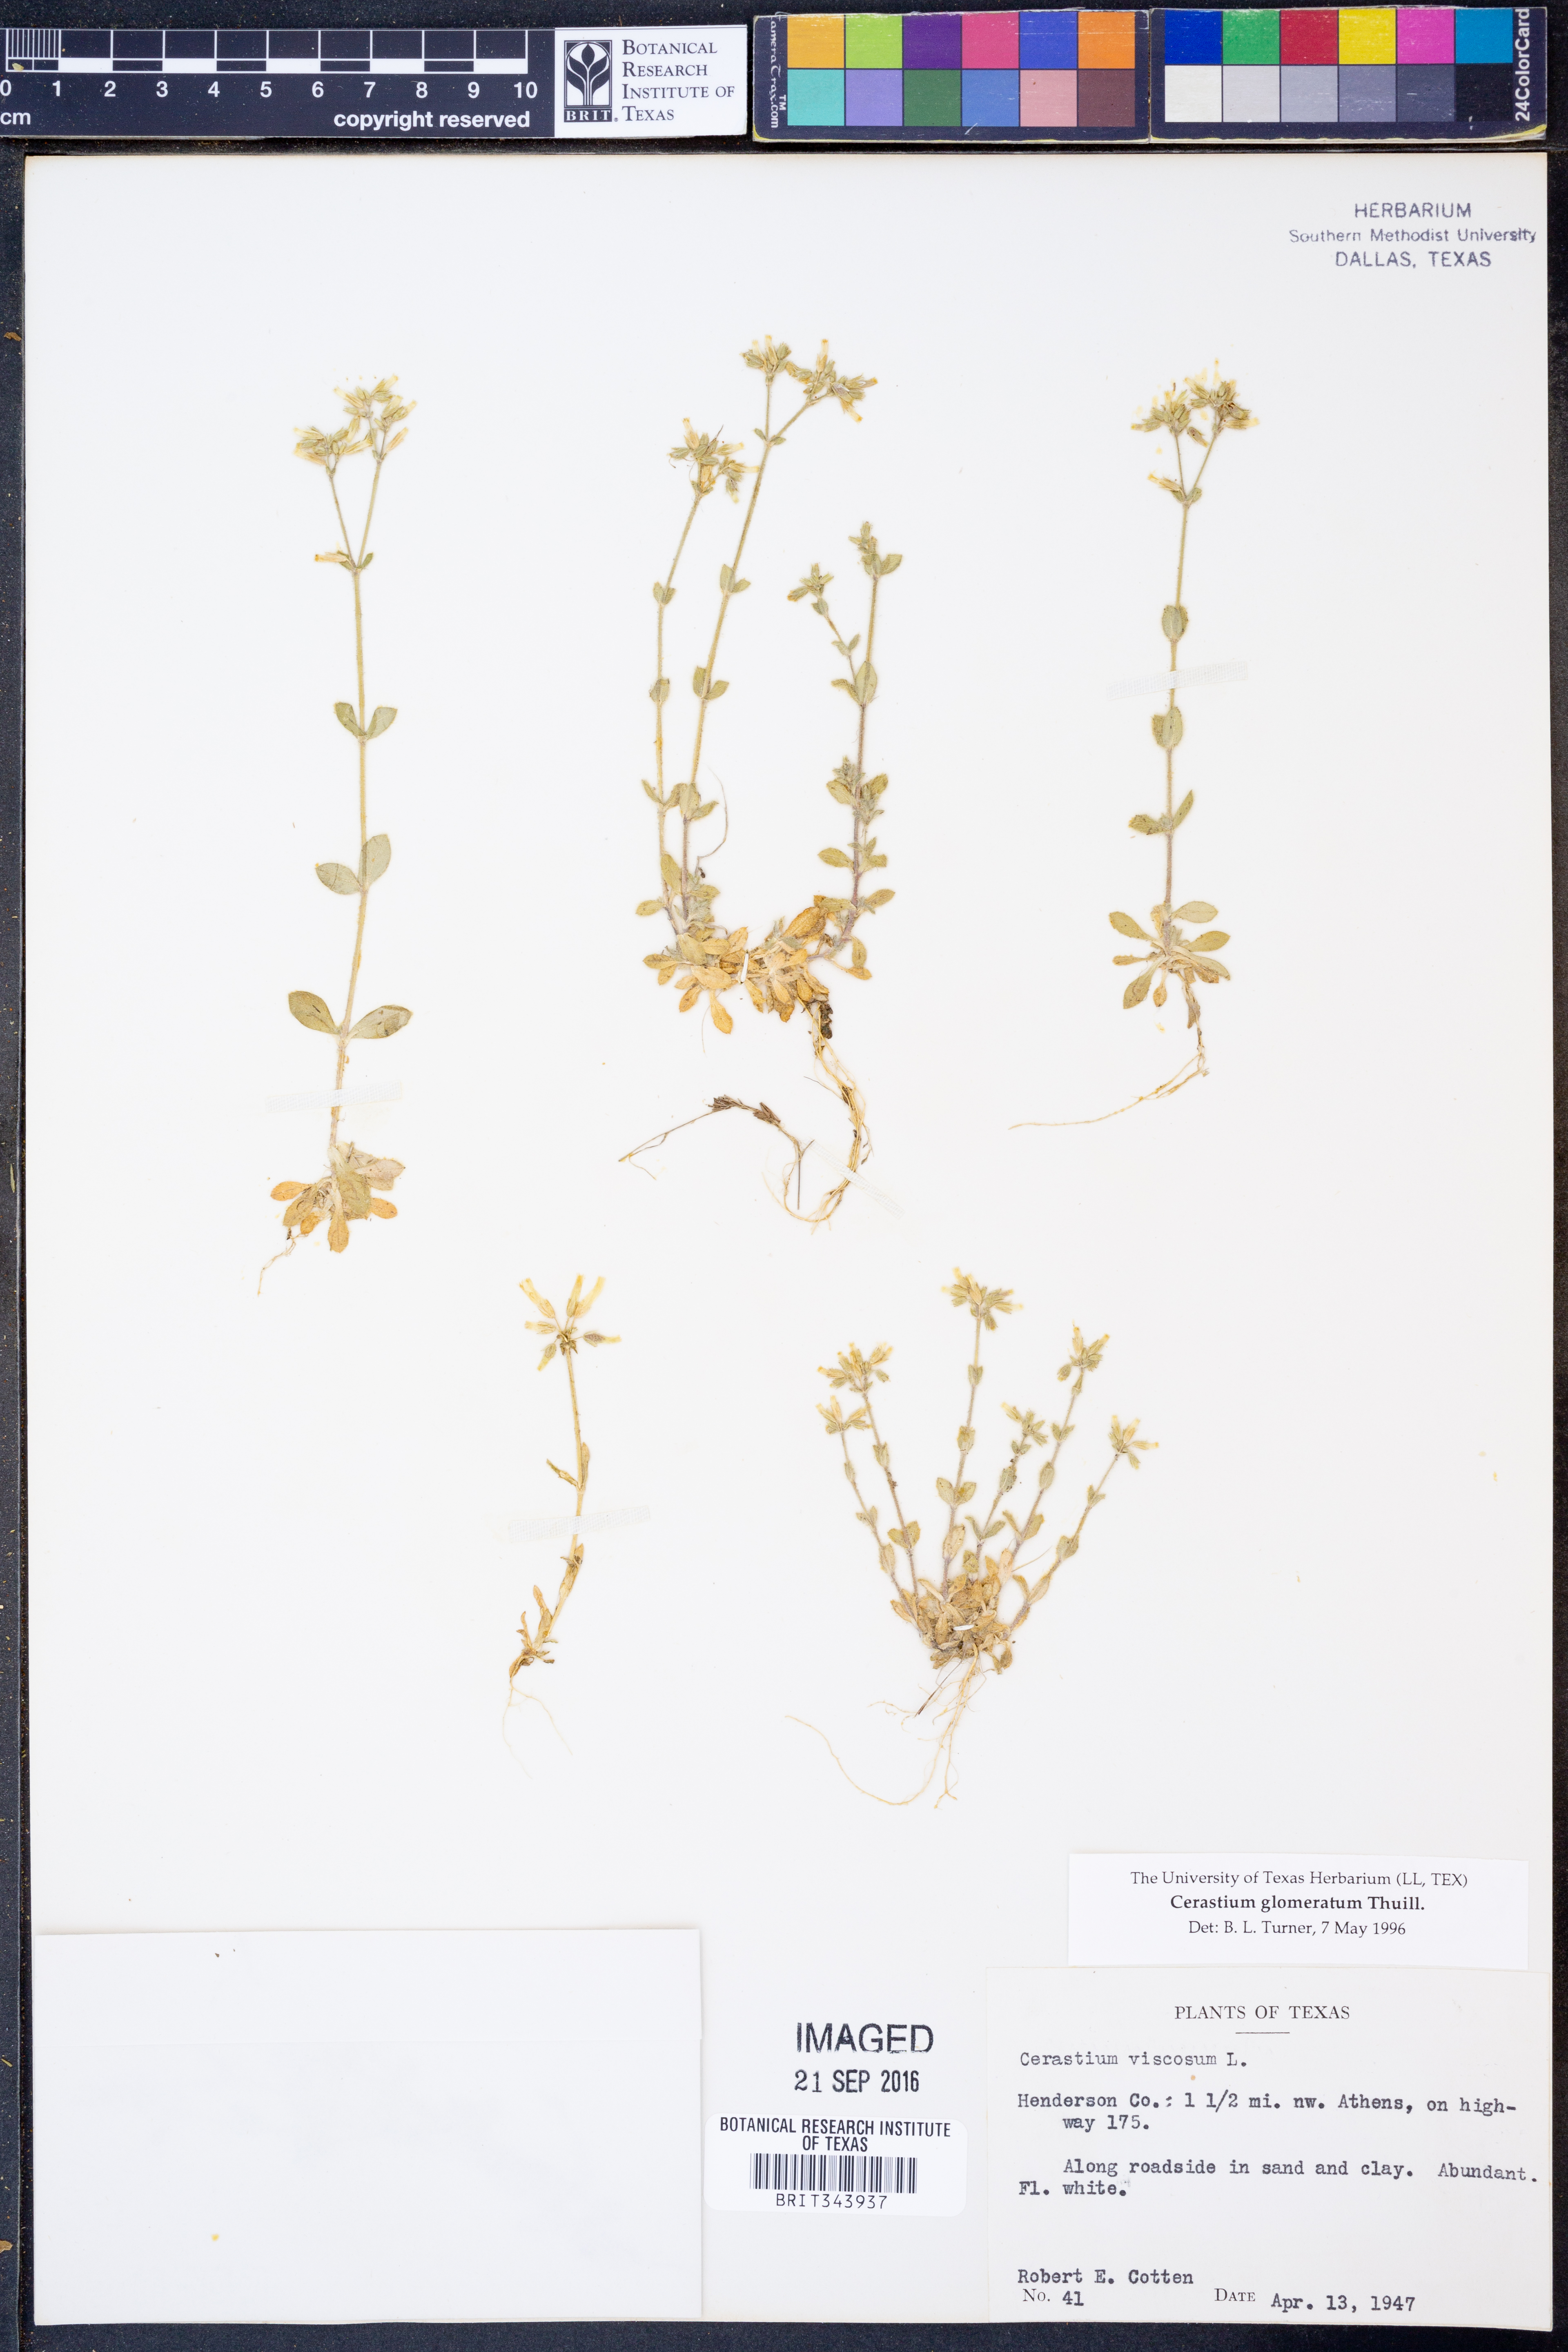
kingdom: Plantae
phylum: Tracheophyta
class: Magnoliopsida
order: Caryophyllales
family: Caryophyllaceae
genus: Cerastium
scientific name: Cerastium glomeratum
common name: Sticky chickweed
